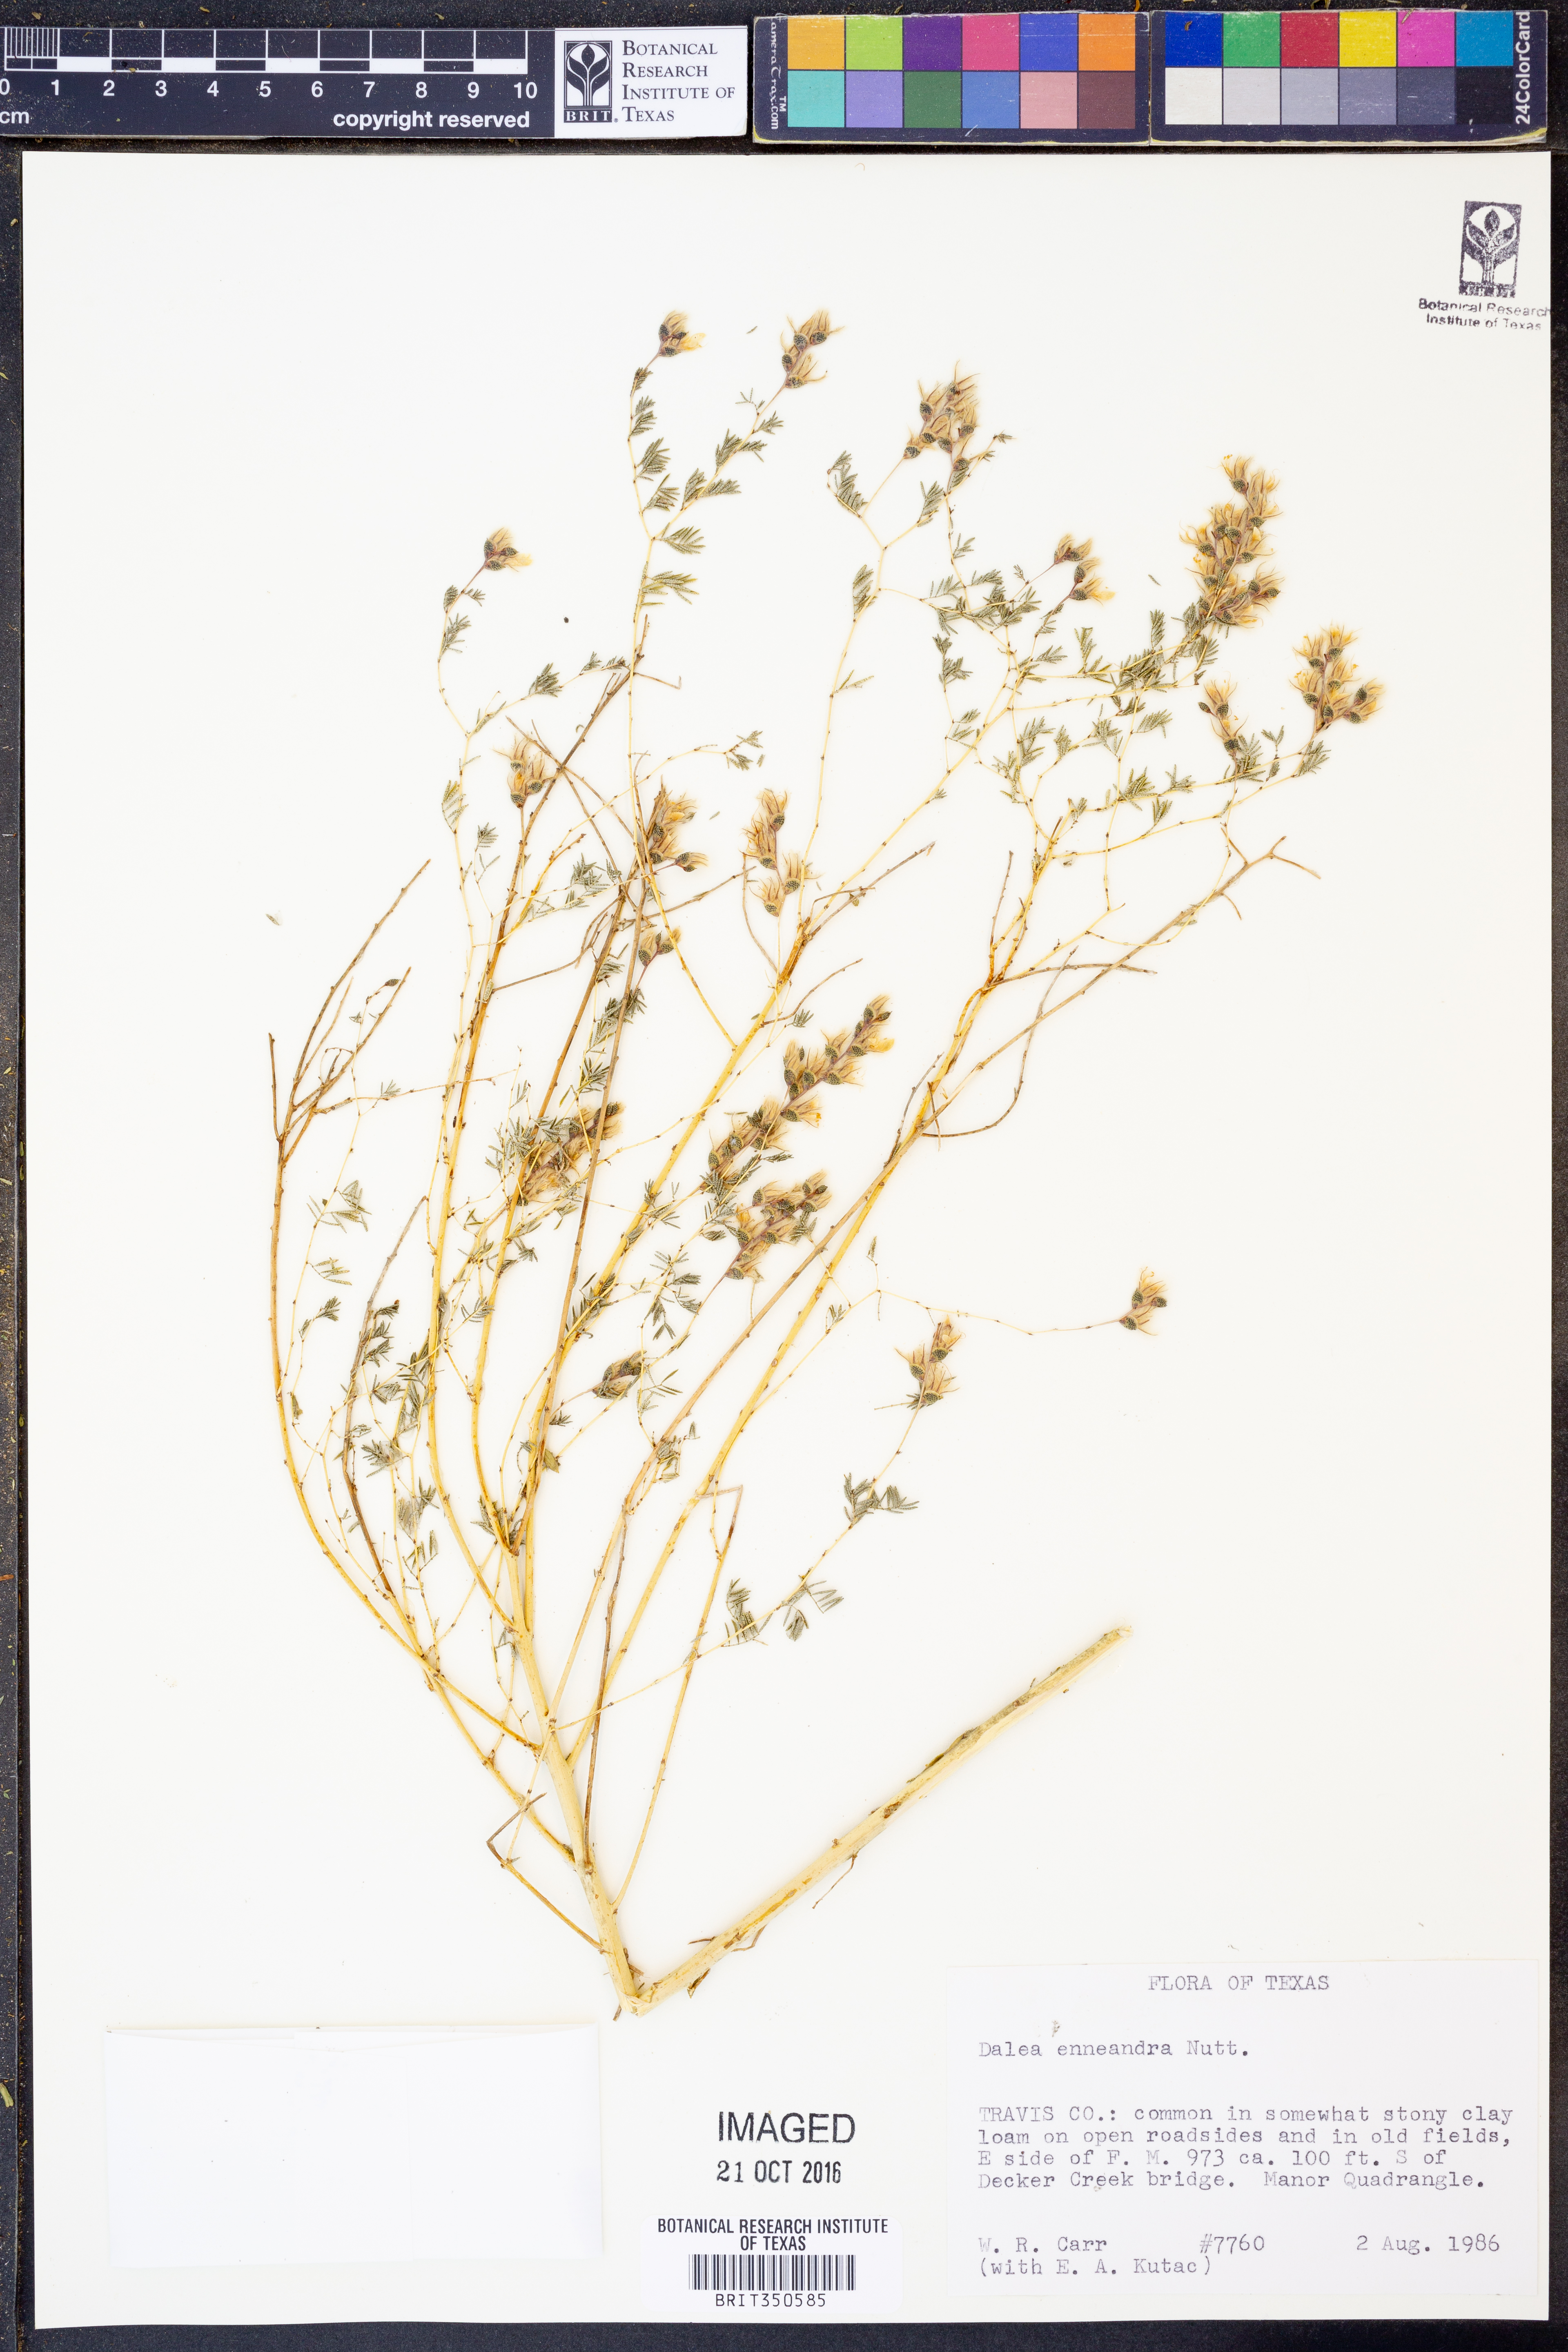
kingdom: Plantae
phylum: Tracheophyta
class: Magnoliopsida
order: Fabales
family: Fabaceae
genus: Dalea
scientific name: Dalea enneandra
